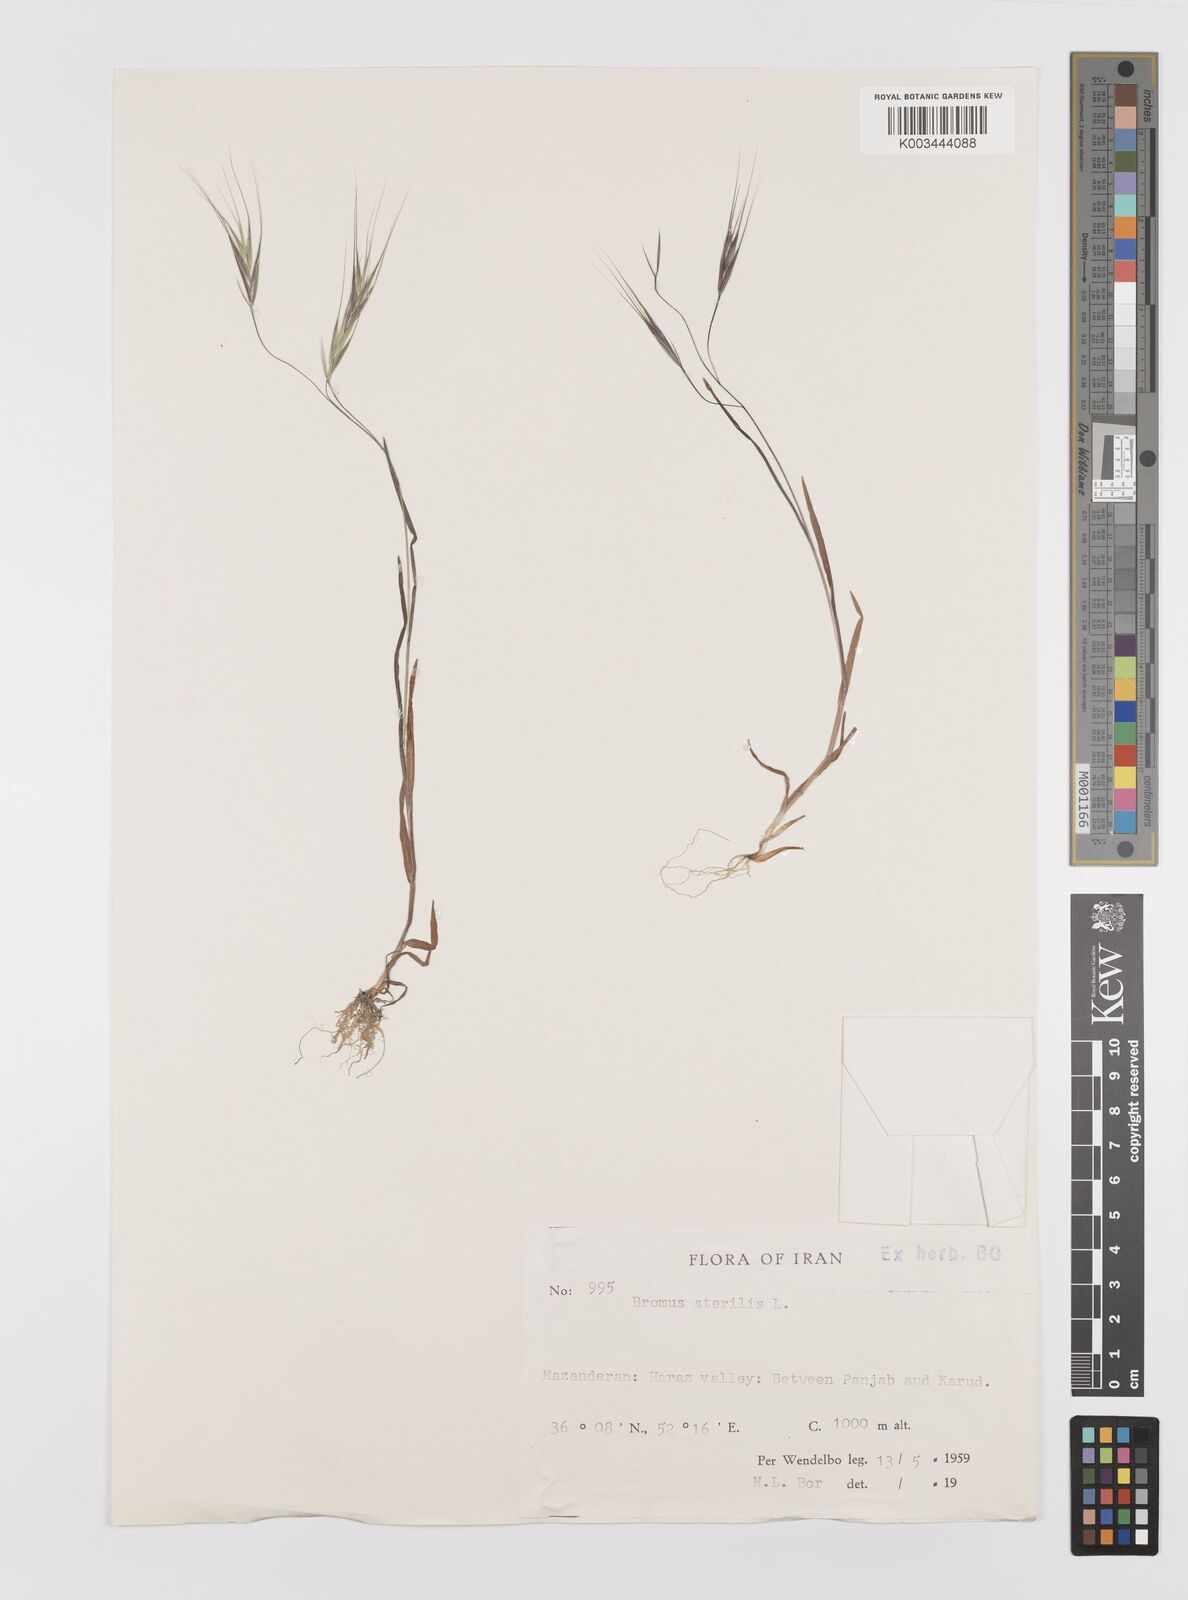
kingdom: Plantae
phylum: Tracheophyta
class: Liliopsida
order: Poales
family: Poaceae
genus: Bromus
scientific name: Bromus sterilis
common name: Poverty brome
